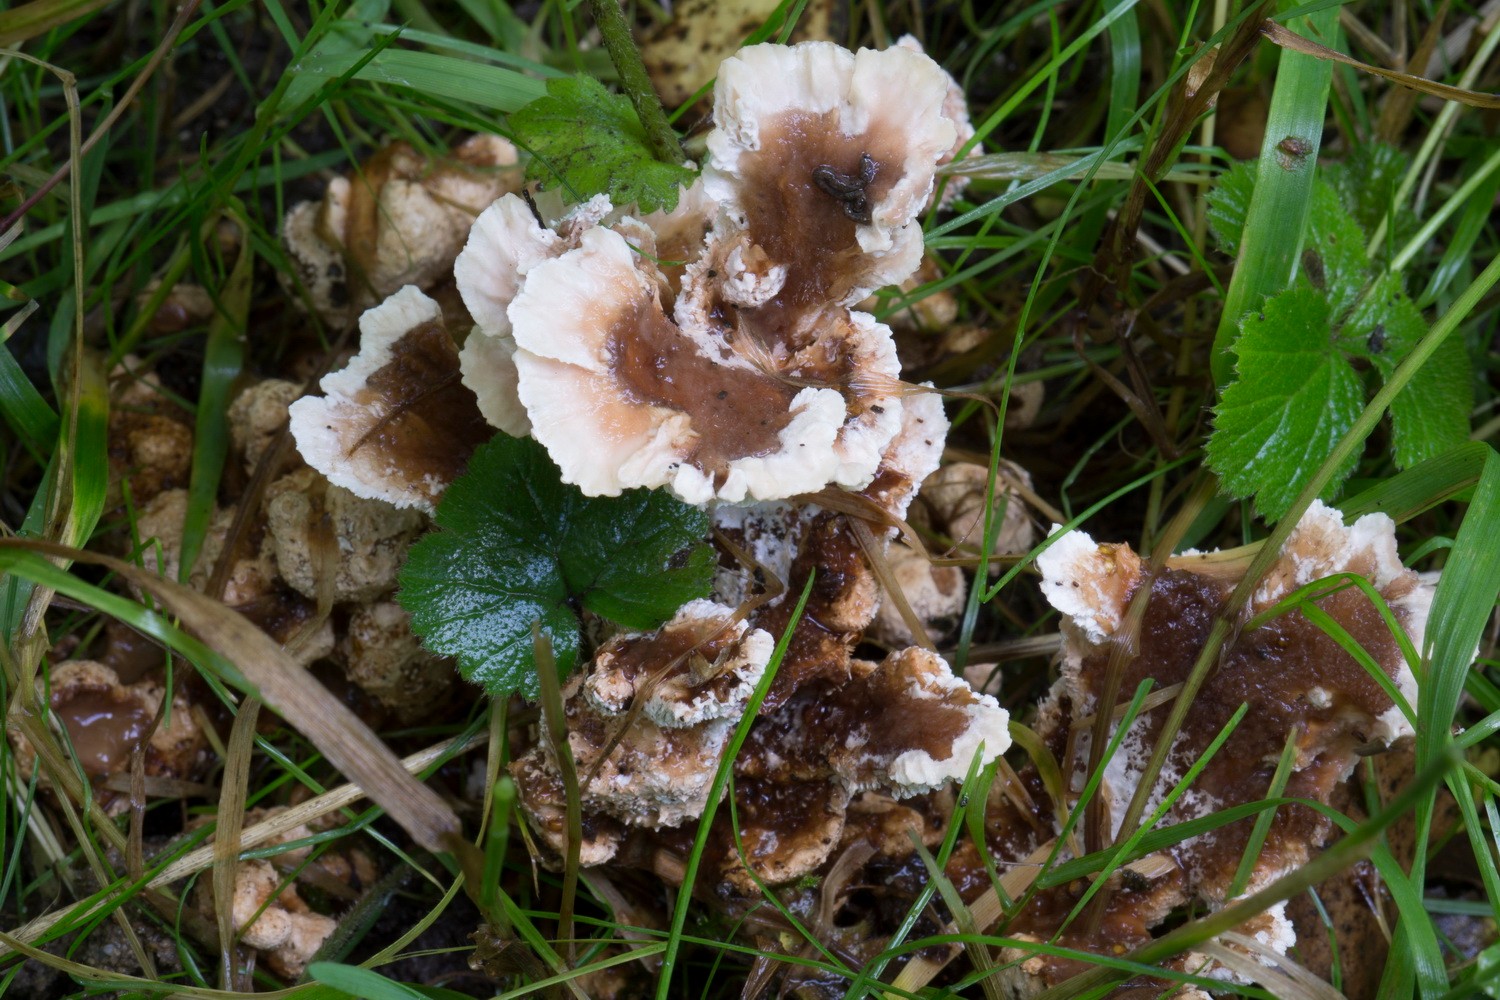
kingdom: Fungi
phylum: Basidiomycota
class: Agaricomycetes
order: Polyporales
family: Podoscyphaceae
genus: Abortiporus
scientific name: Abortiporus biennis
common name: rødmende pjalteporesvamp
